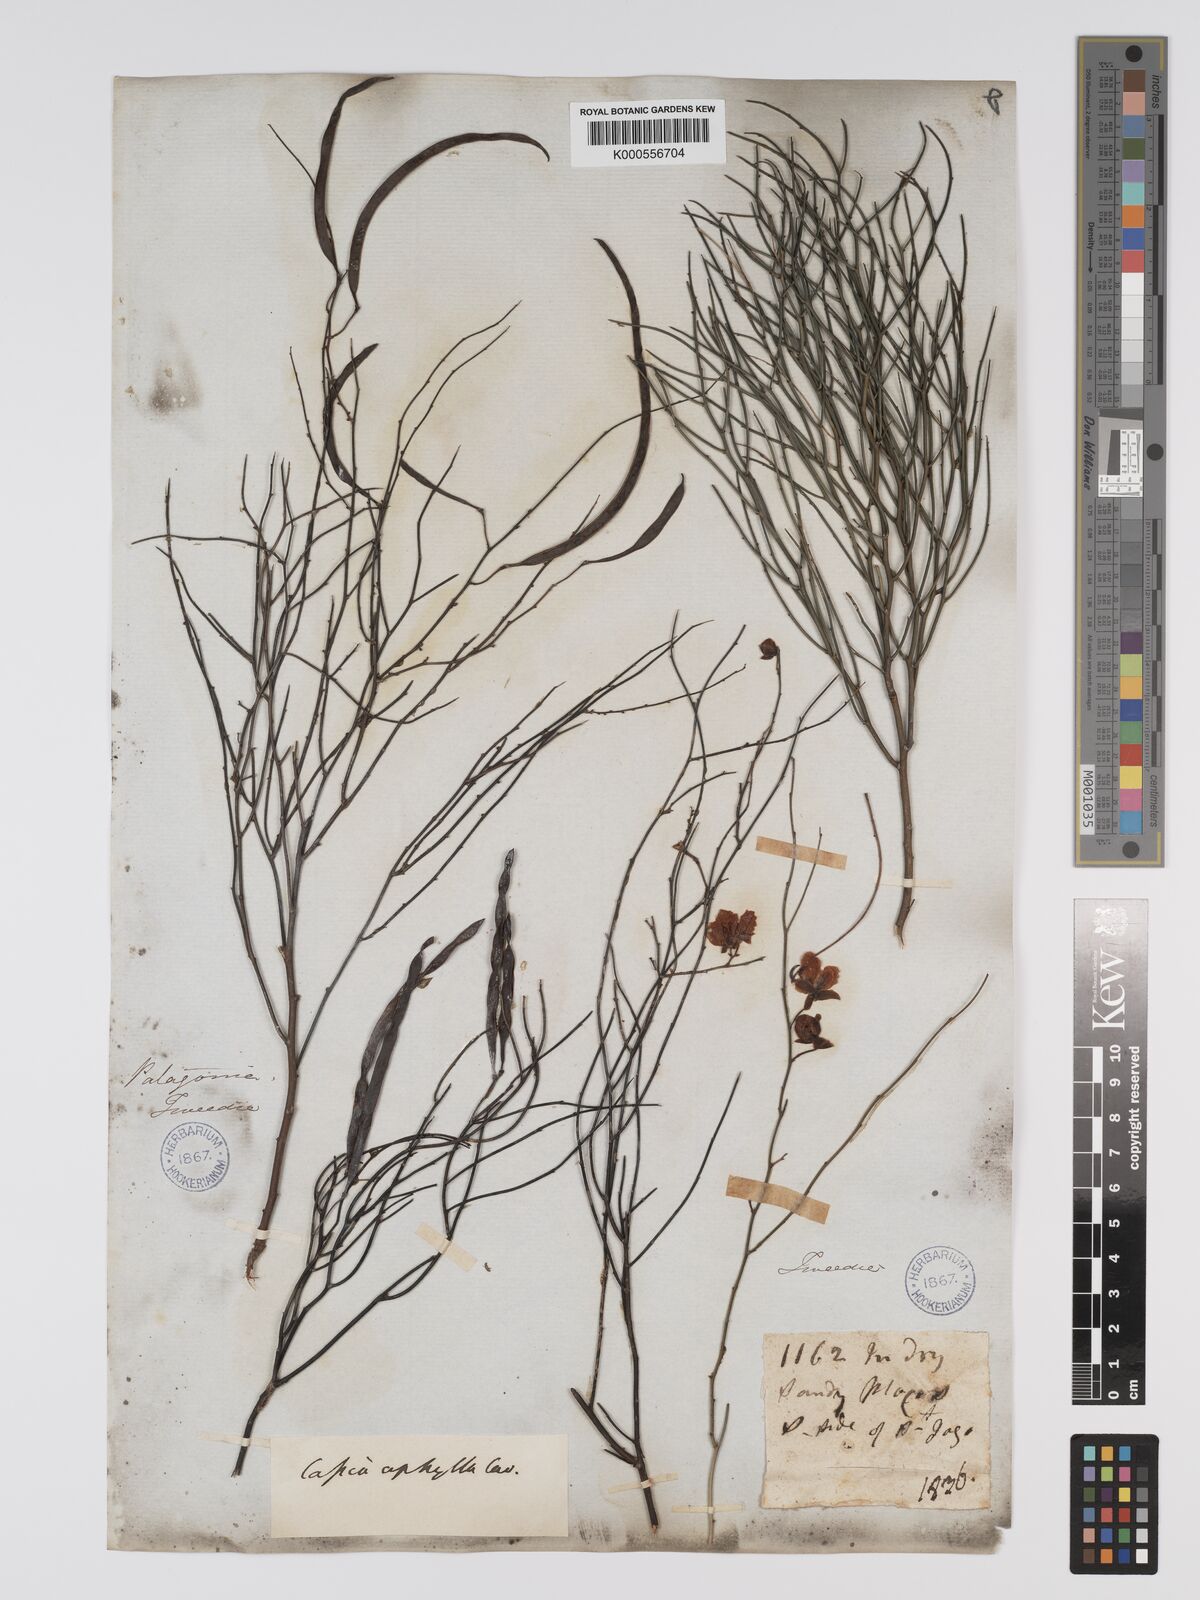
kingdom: Plantae
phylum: Tracheophyta
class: Magnoliopsida
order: Fabales
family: Fabaceae
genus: Senna
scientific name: Senna aphylla
